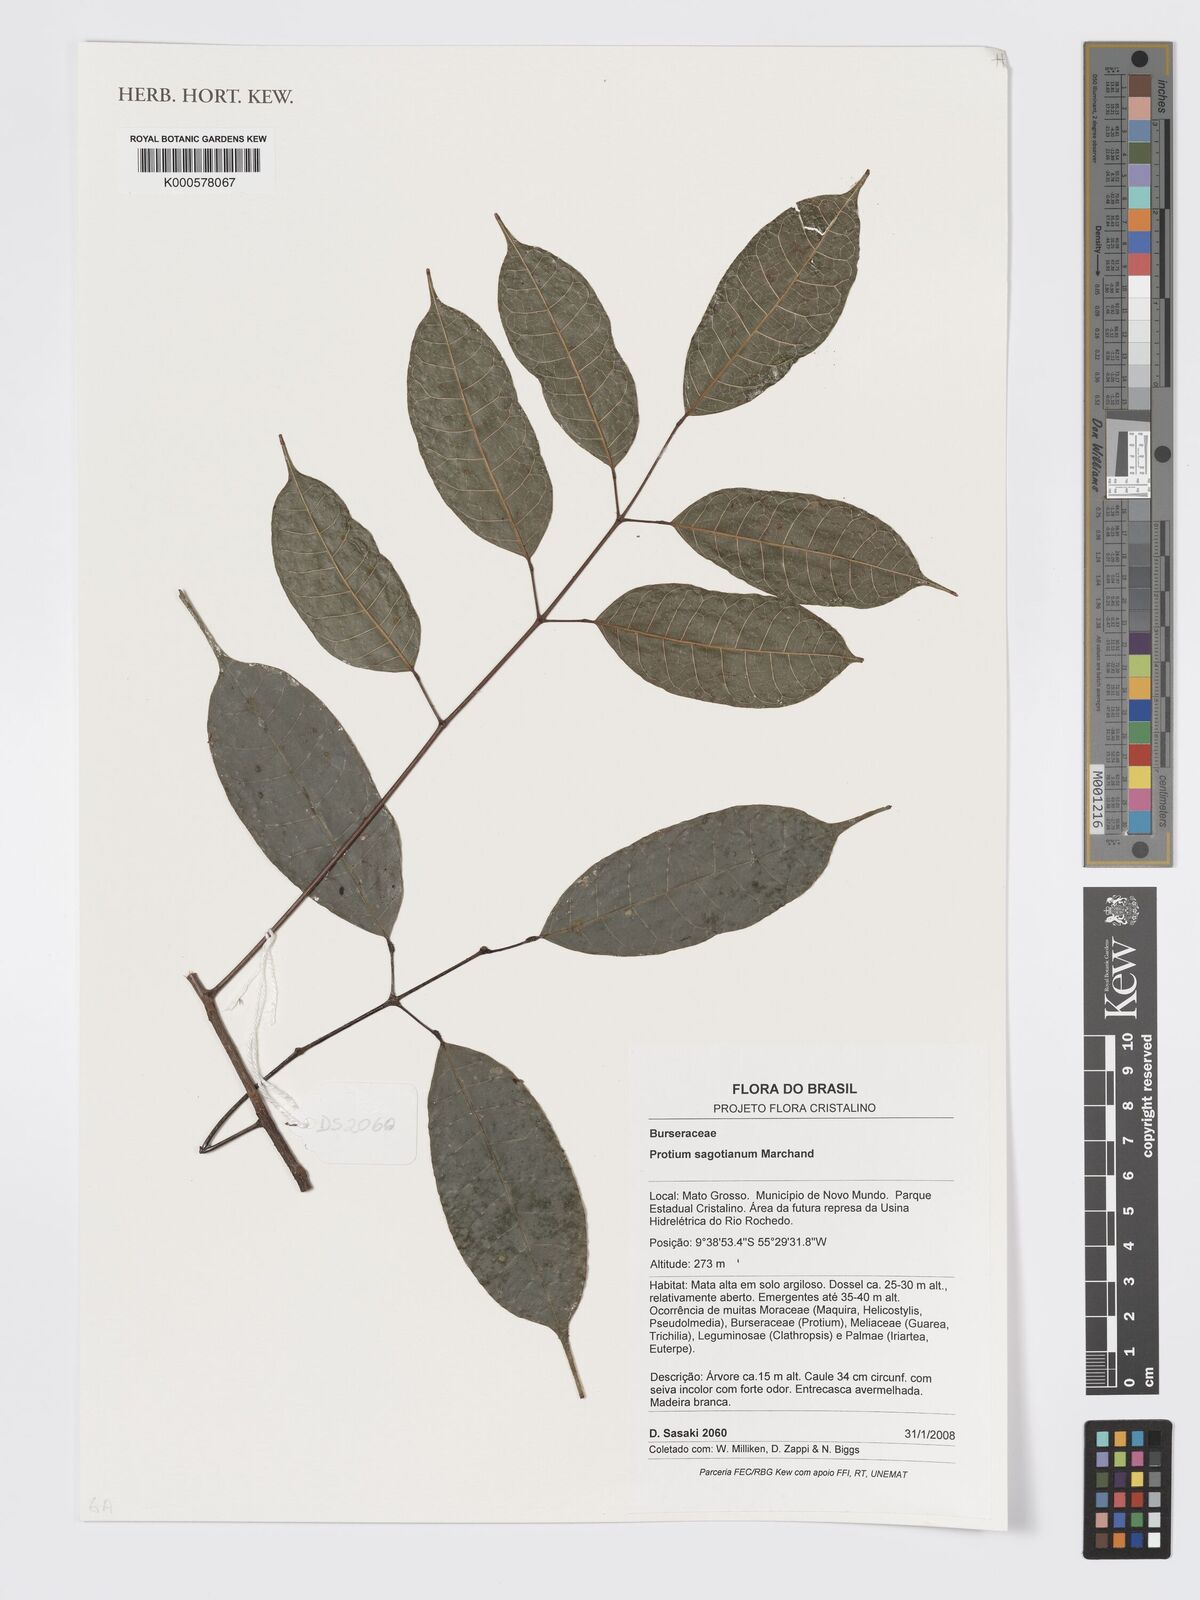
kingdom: Plantae
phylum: Tracheophyta
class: Magnoliopsida
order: Sapindales
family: Burseraceae
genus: Protium
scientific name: Protium sagotianum
